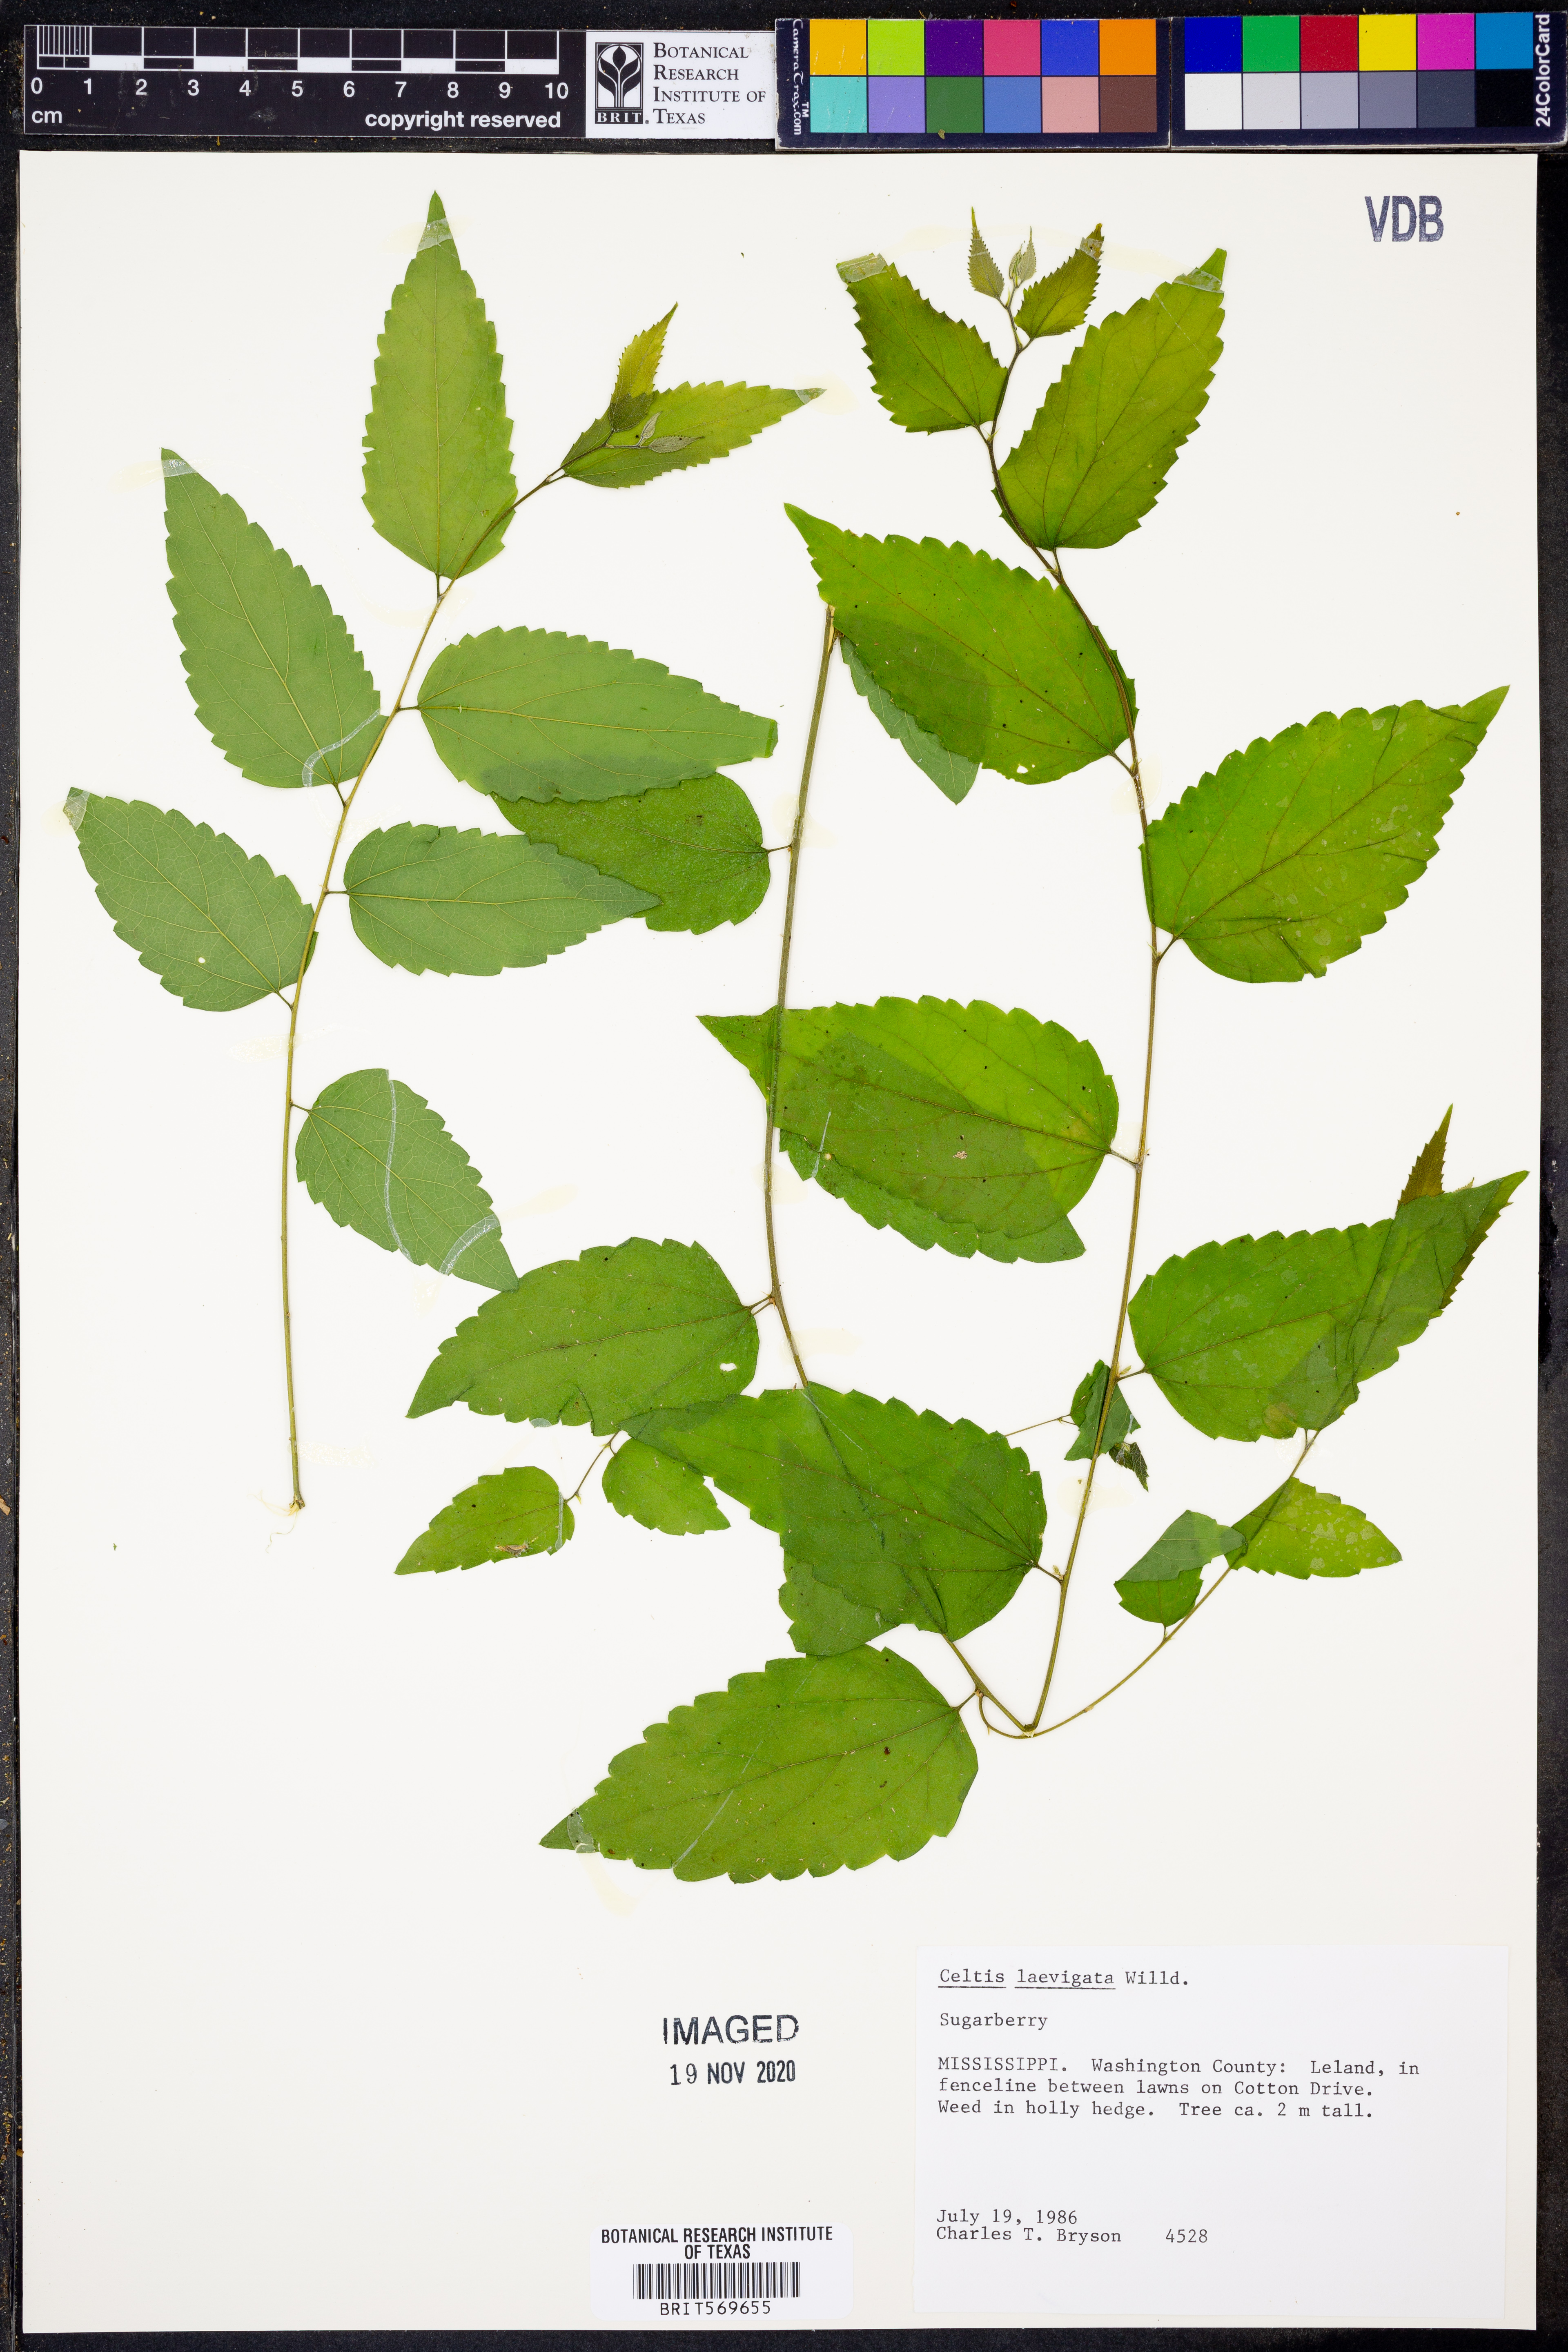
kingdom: Plantae
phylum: Tracheophyta
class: Magnoliopsida
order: Rosales
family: Cannabaceae
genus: Celtis
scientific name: Celtis laevigata
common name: Sugarberry
